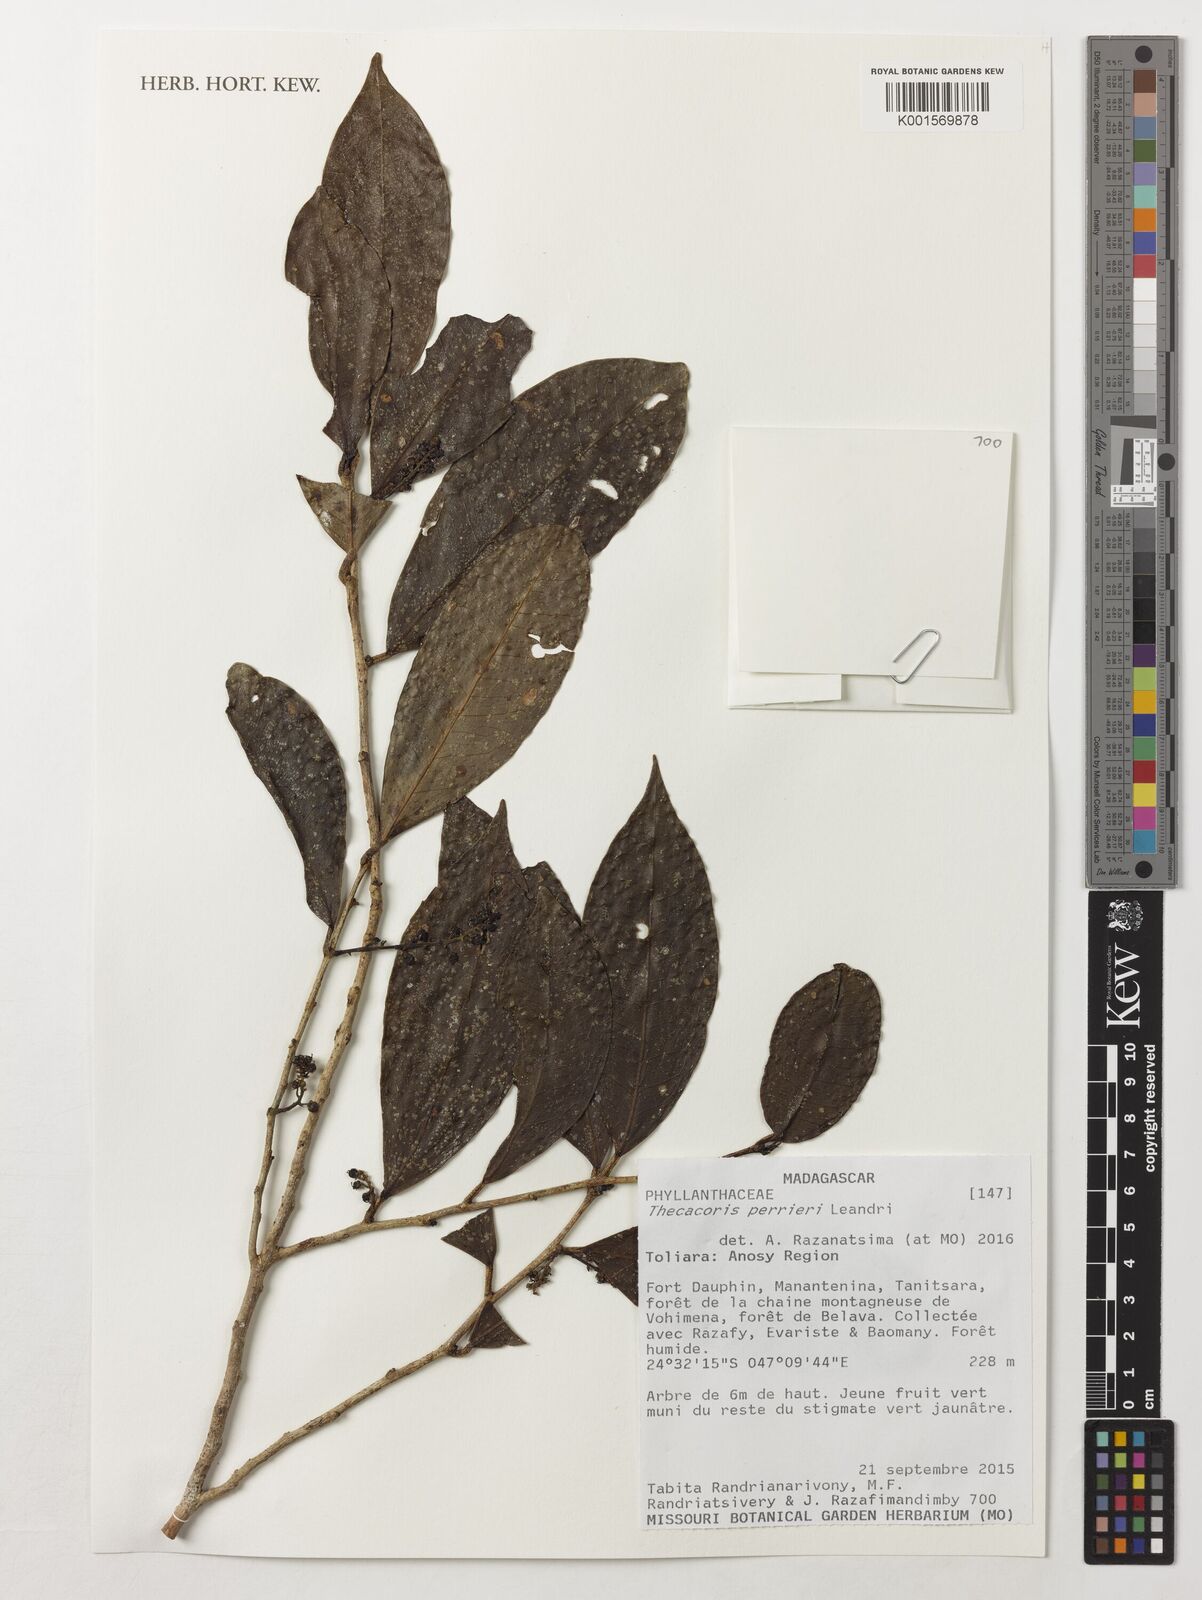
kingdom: Plantae
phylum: Tracheophyta
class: Magnoliopsida
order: Malpighiales
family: Phyllanthaceae
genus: Thecacoris
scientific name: Thecacoris perrieri
